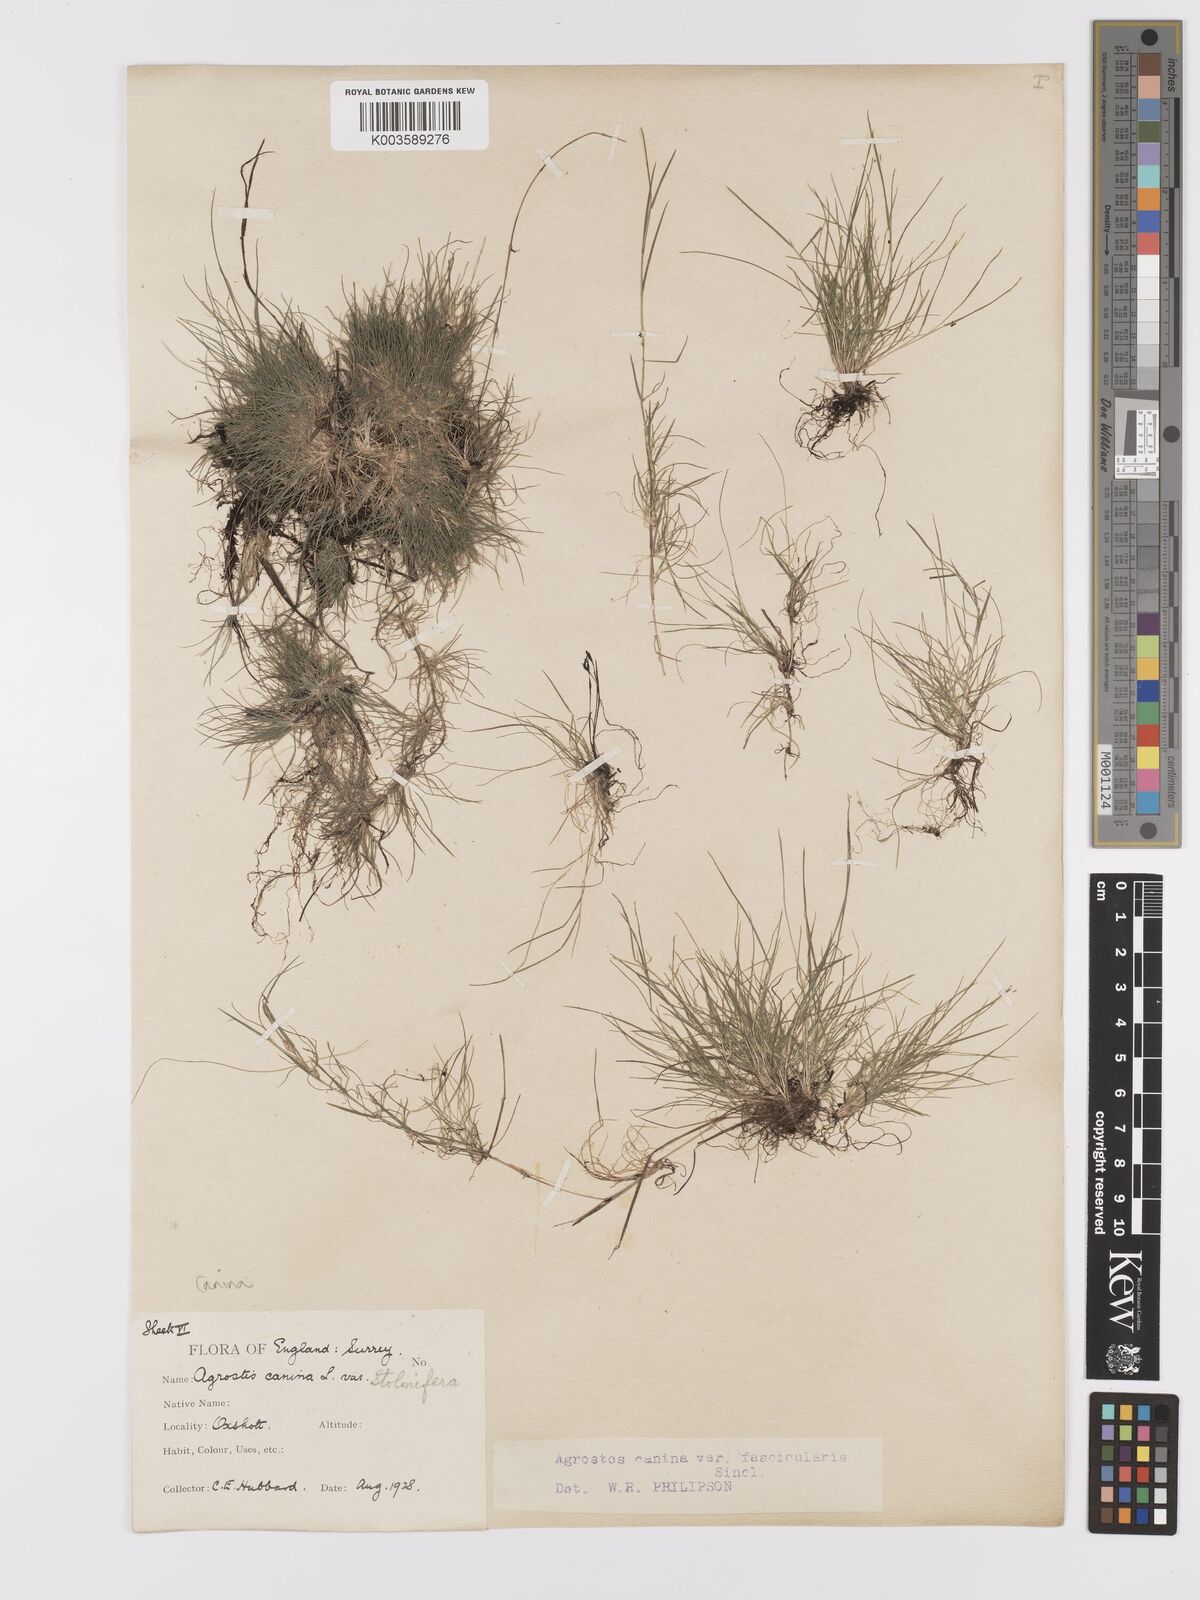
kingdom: Plantae
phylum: Tracheophyta
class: Liliopsida
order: Poales
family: Poaceae
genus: Agrostis
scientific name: Agrostis canina
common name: Velvet bent
